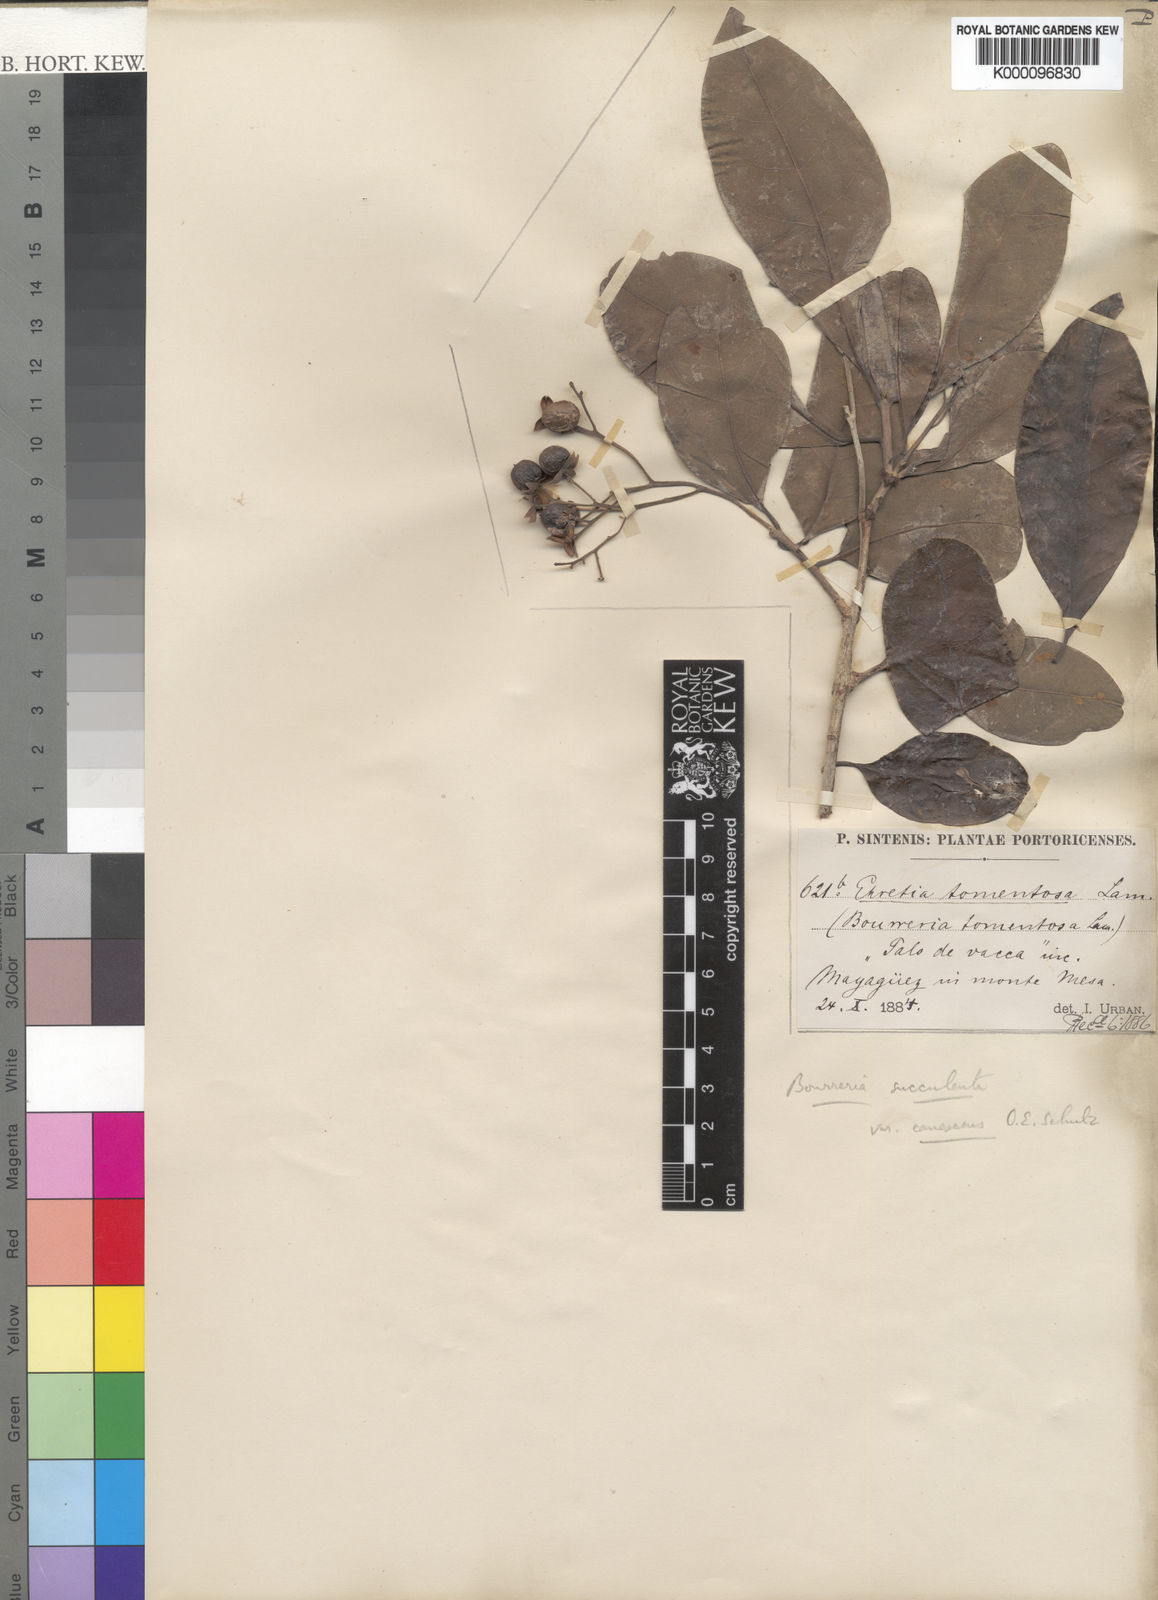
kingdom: Plantae
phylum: Tracheophyta
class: Magnoliopsida
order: Boraginales
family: Ehretiaceae
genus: Bourreria
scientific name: Bourreria succulenta
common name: Cherry
